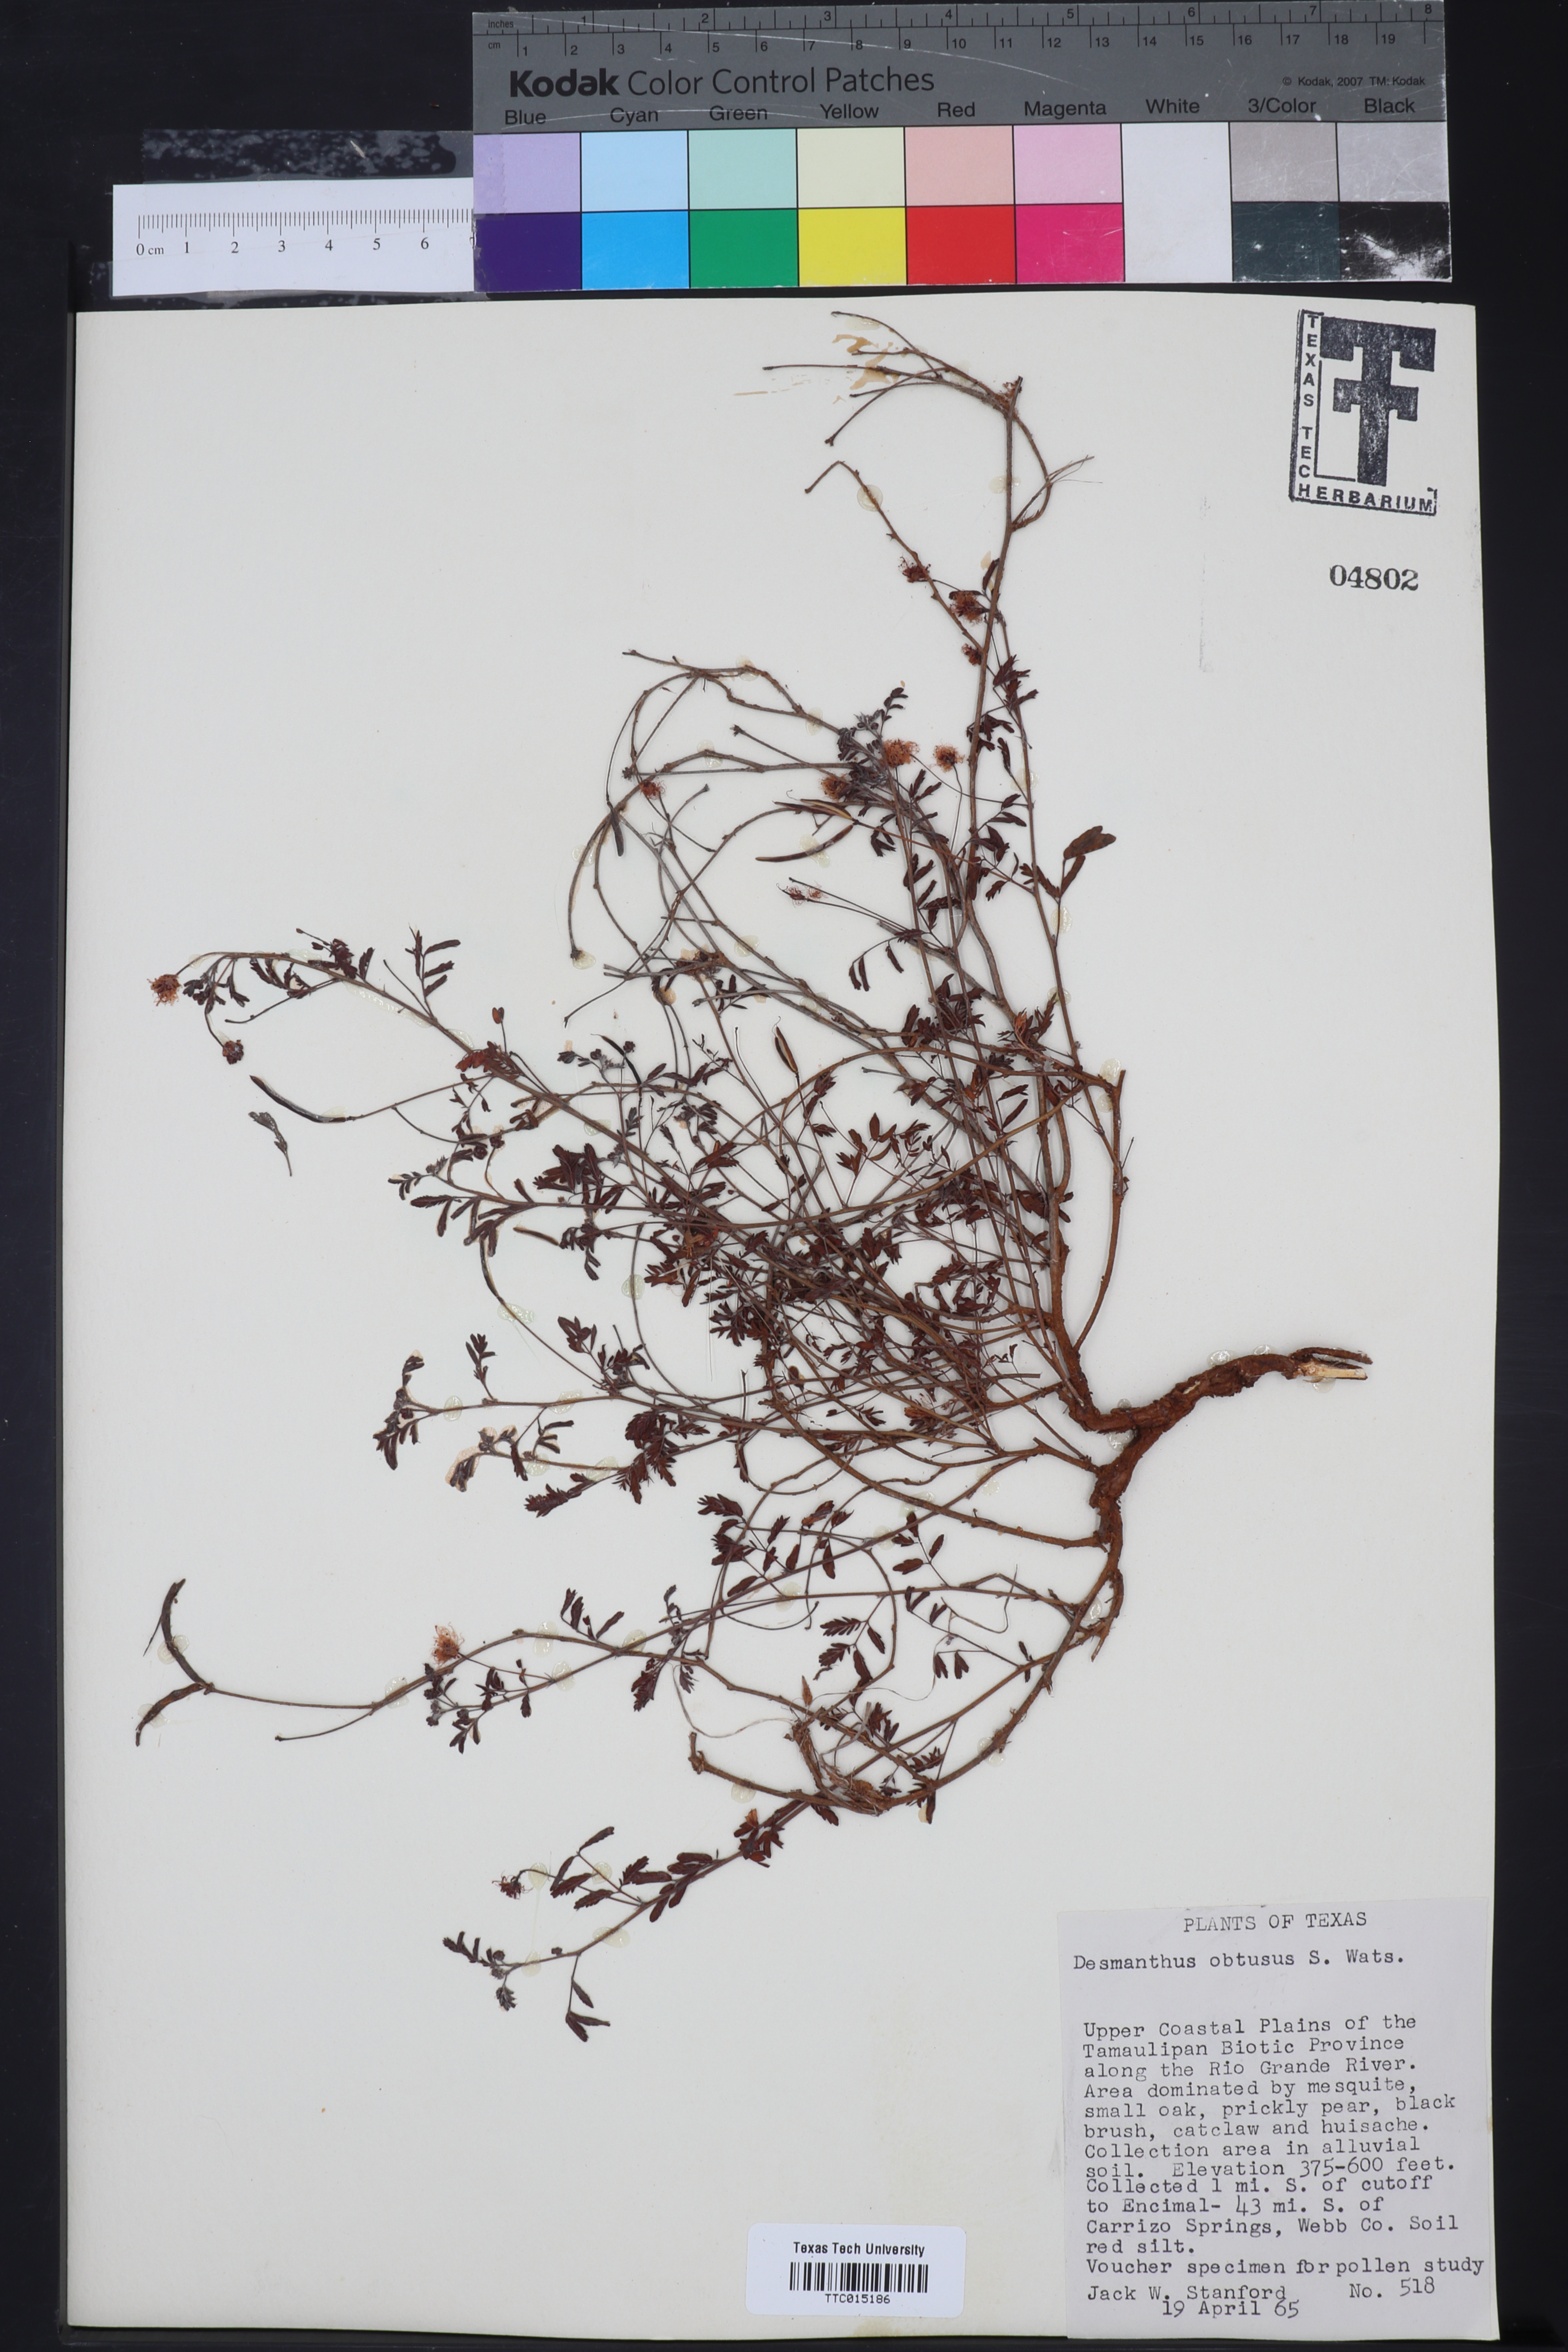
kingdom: Plantae
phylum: Tracheophyta
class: Magnoliopsida
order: Fabales
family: Fabaceae
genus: Desmanthus
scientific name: Desmanthus obtusus
